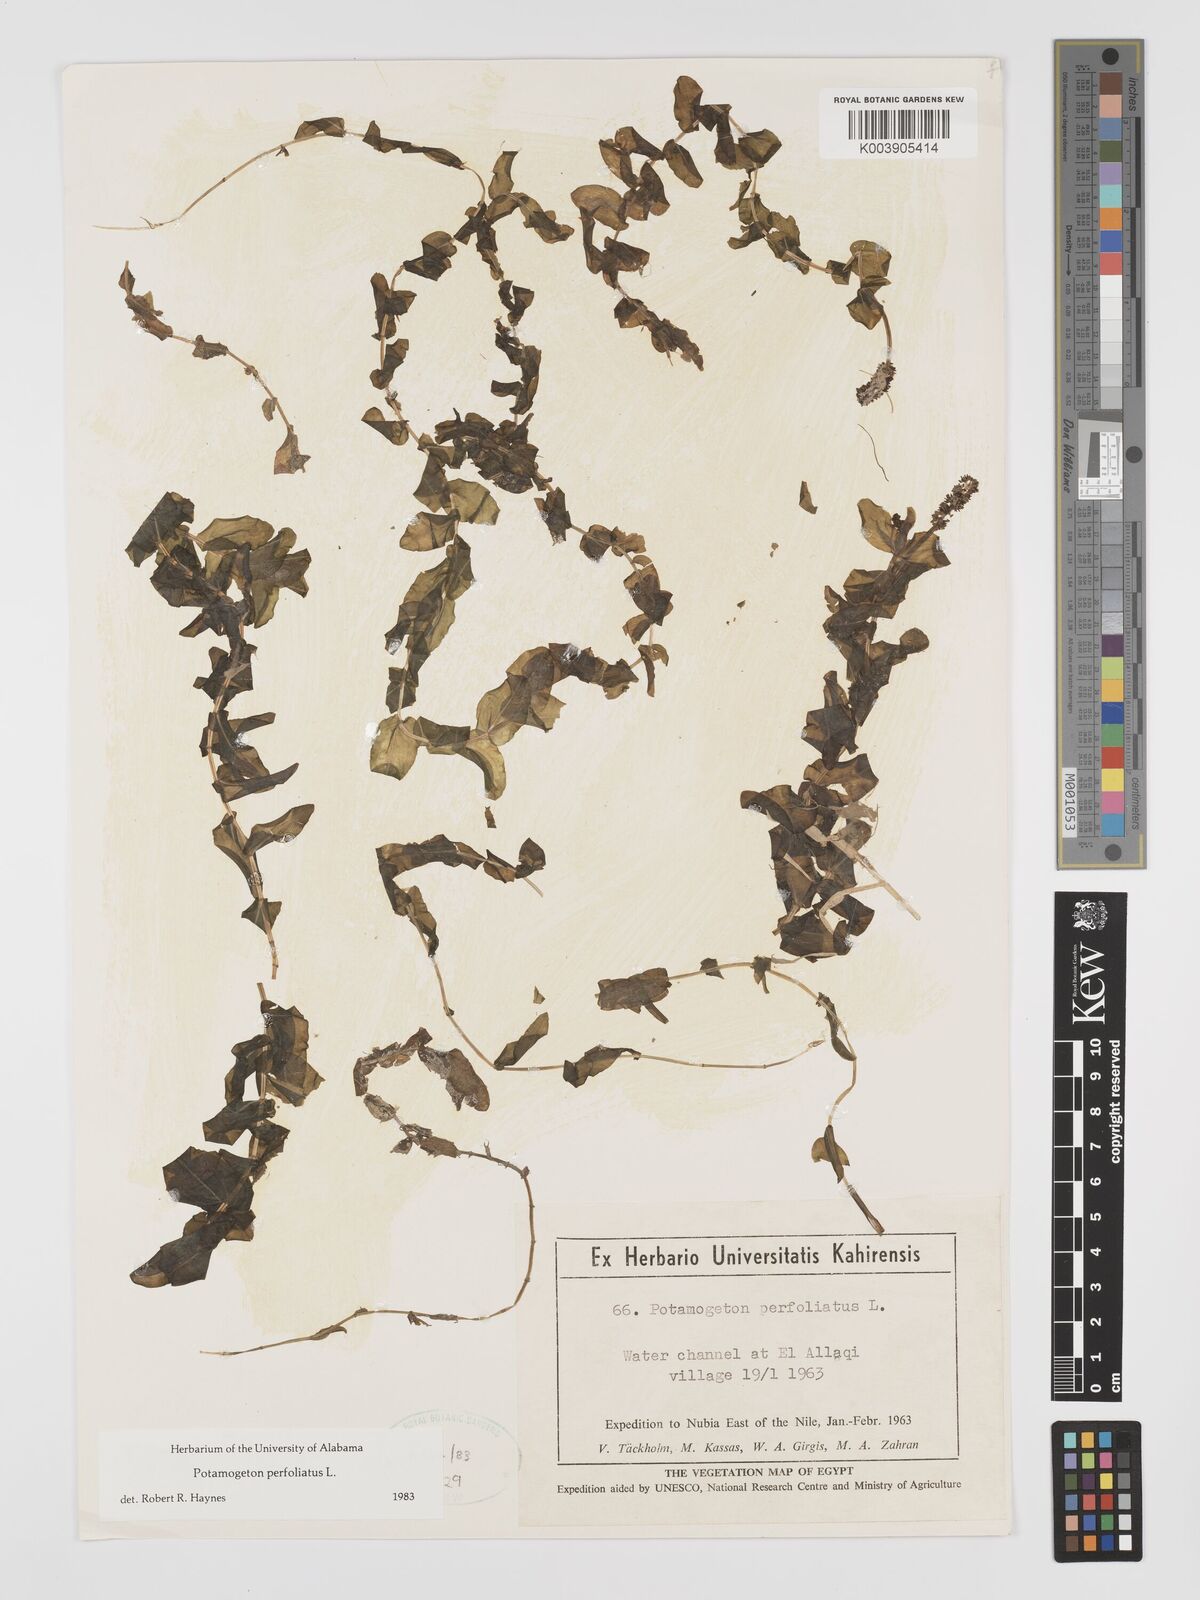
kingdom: Plantae
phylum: Tracheophyta
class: Liliopsida
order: Alismatales
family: Potamogetonaceae
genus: Potamogeton
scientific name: Potamogeton perfoliatus
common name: Perfoliate pondweed
